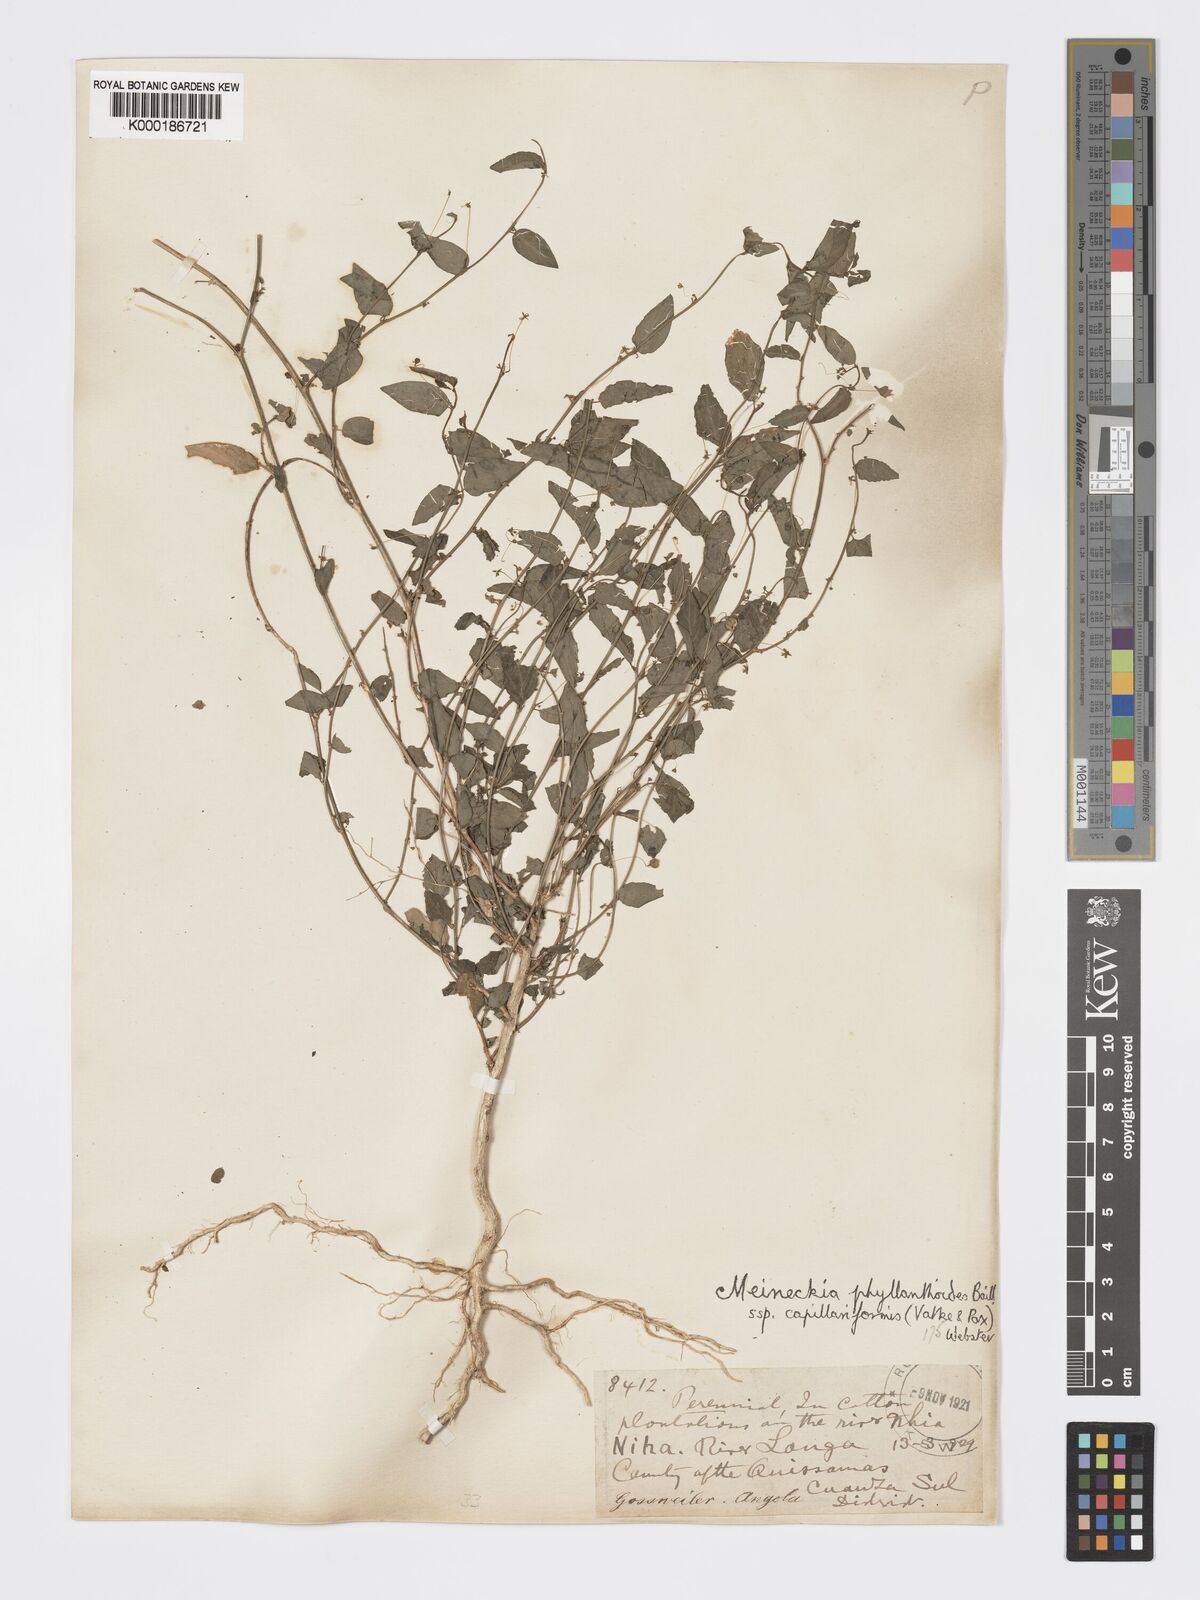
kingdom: Plantae
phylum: Tracheophyta
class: Magnoliopsida
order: Malpighiales
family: Phyllanthaceae
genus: Meineckia
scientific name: Meineckia phyllanthoides
